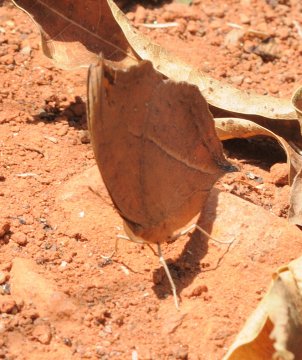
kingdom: Animalia
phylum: Arthropoda
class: Insecta
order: Lepidoptera
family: Nymphalidae
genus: Precis
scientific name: Precis
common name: Commodores
